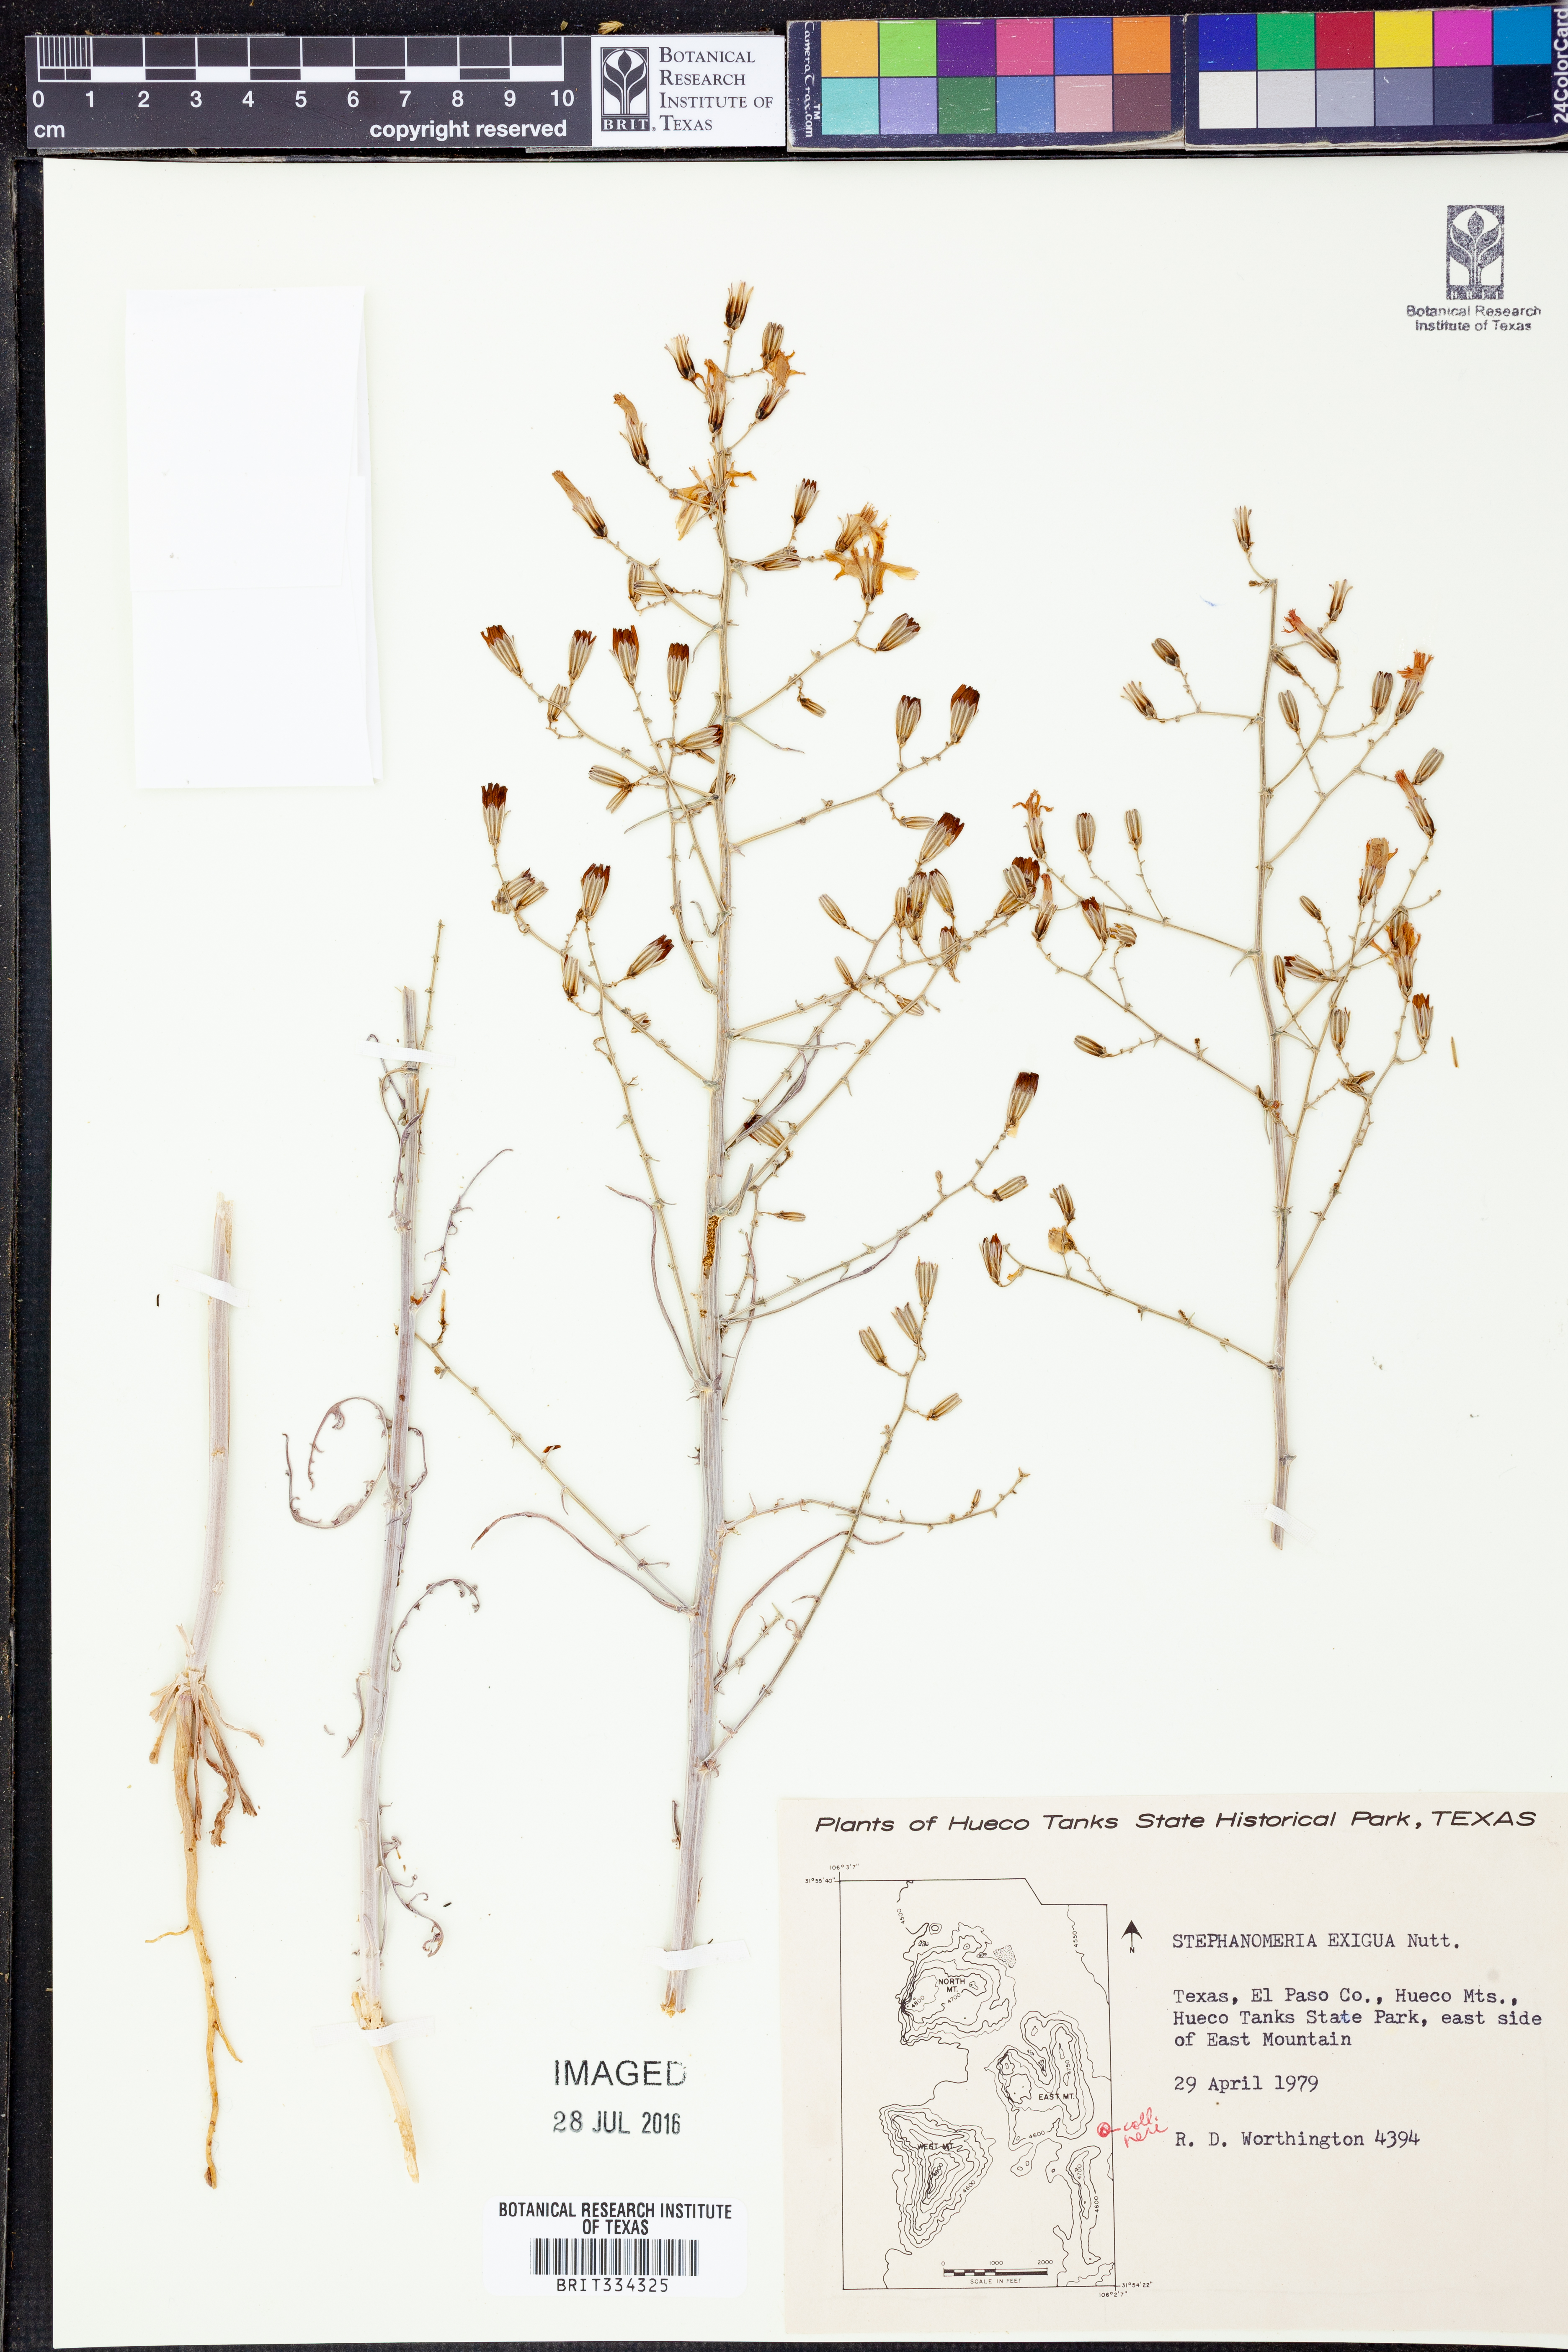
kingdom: Plantae
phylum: Tracheophyta
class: Magnoliopsida
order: Asterales
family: Asteraceae
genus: Stephanomeria
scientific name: Stephanomeria exigua
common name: Small wirelettuce
